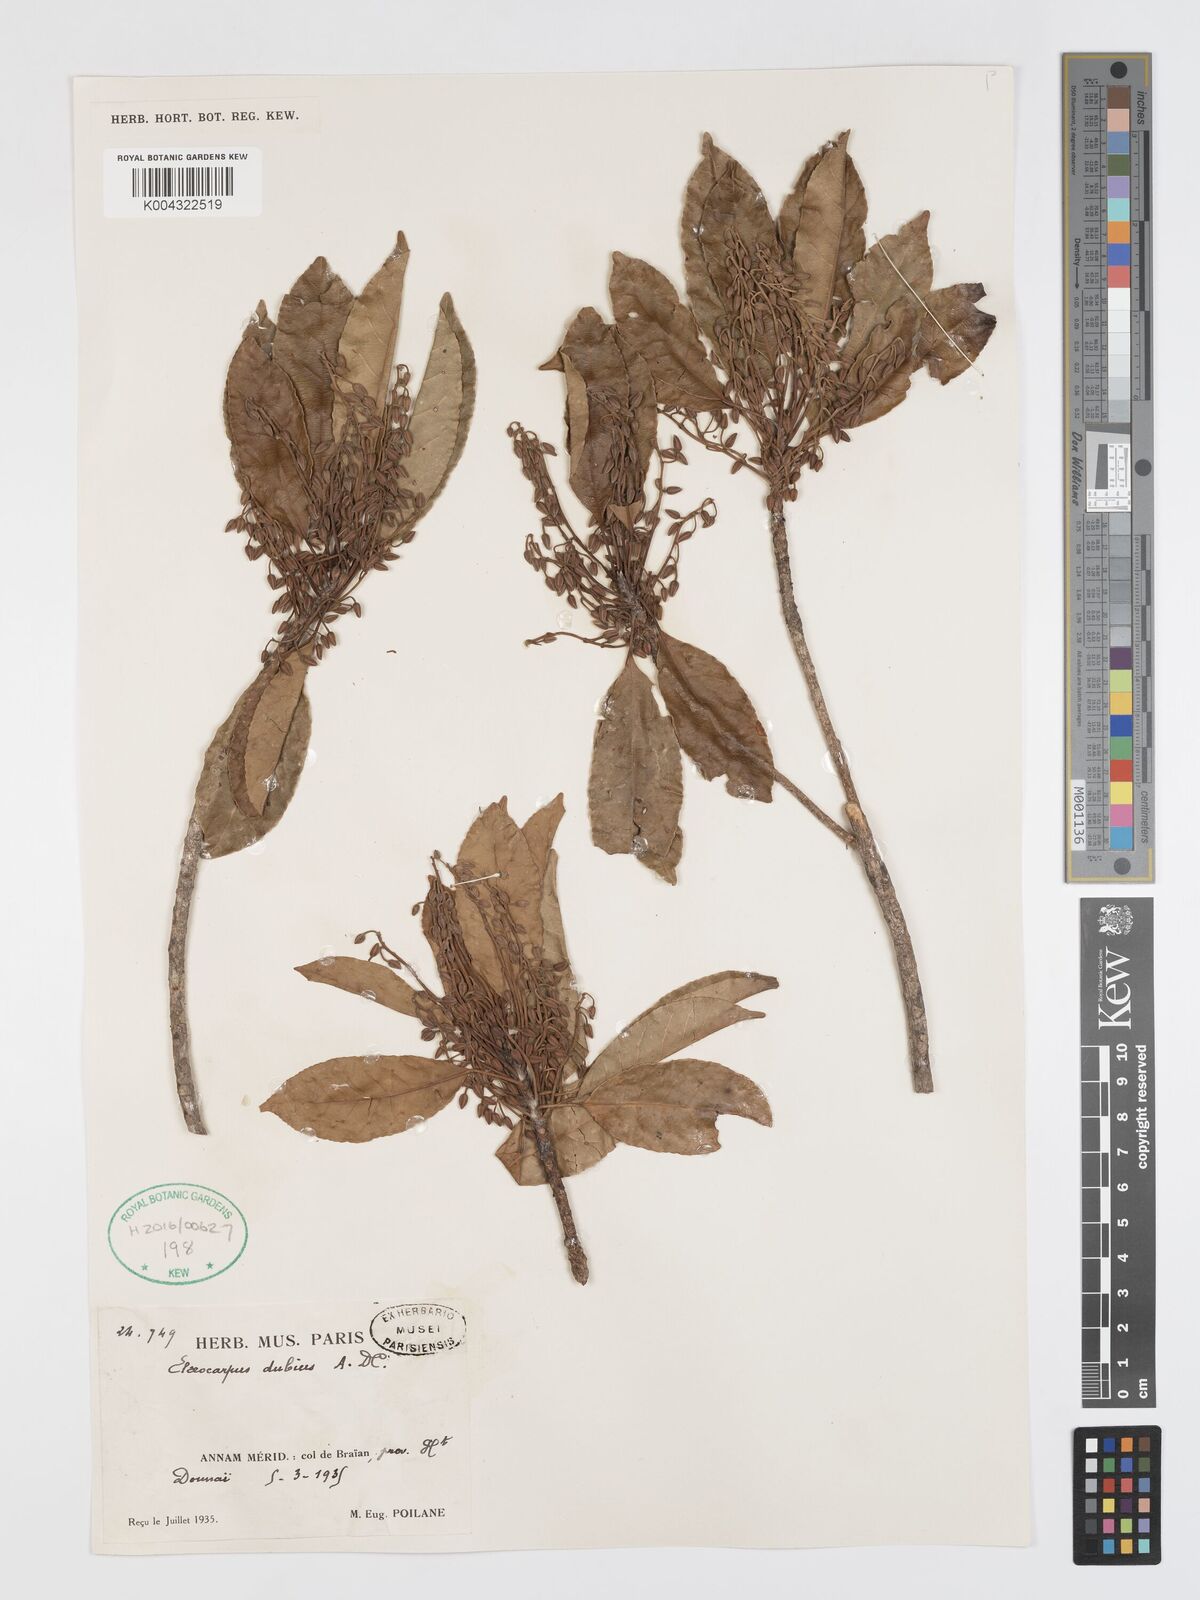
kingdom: Plantae
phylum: Tracheophyta
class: Magnoliopsida
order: Oxalidales
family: Elaeocarpaceae
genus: Elaeocarpus
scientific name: Elaeocarpus dubius
